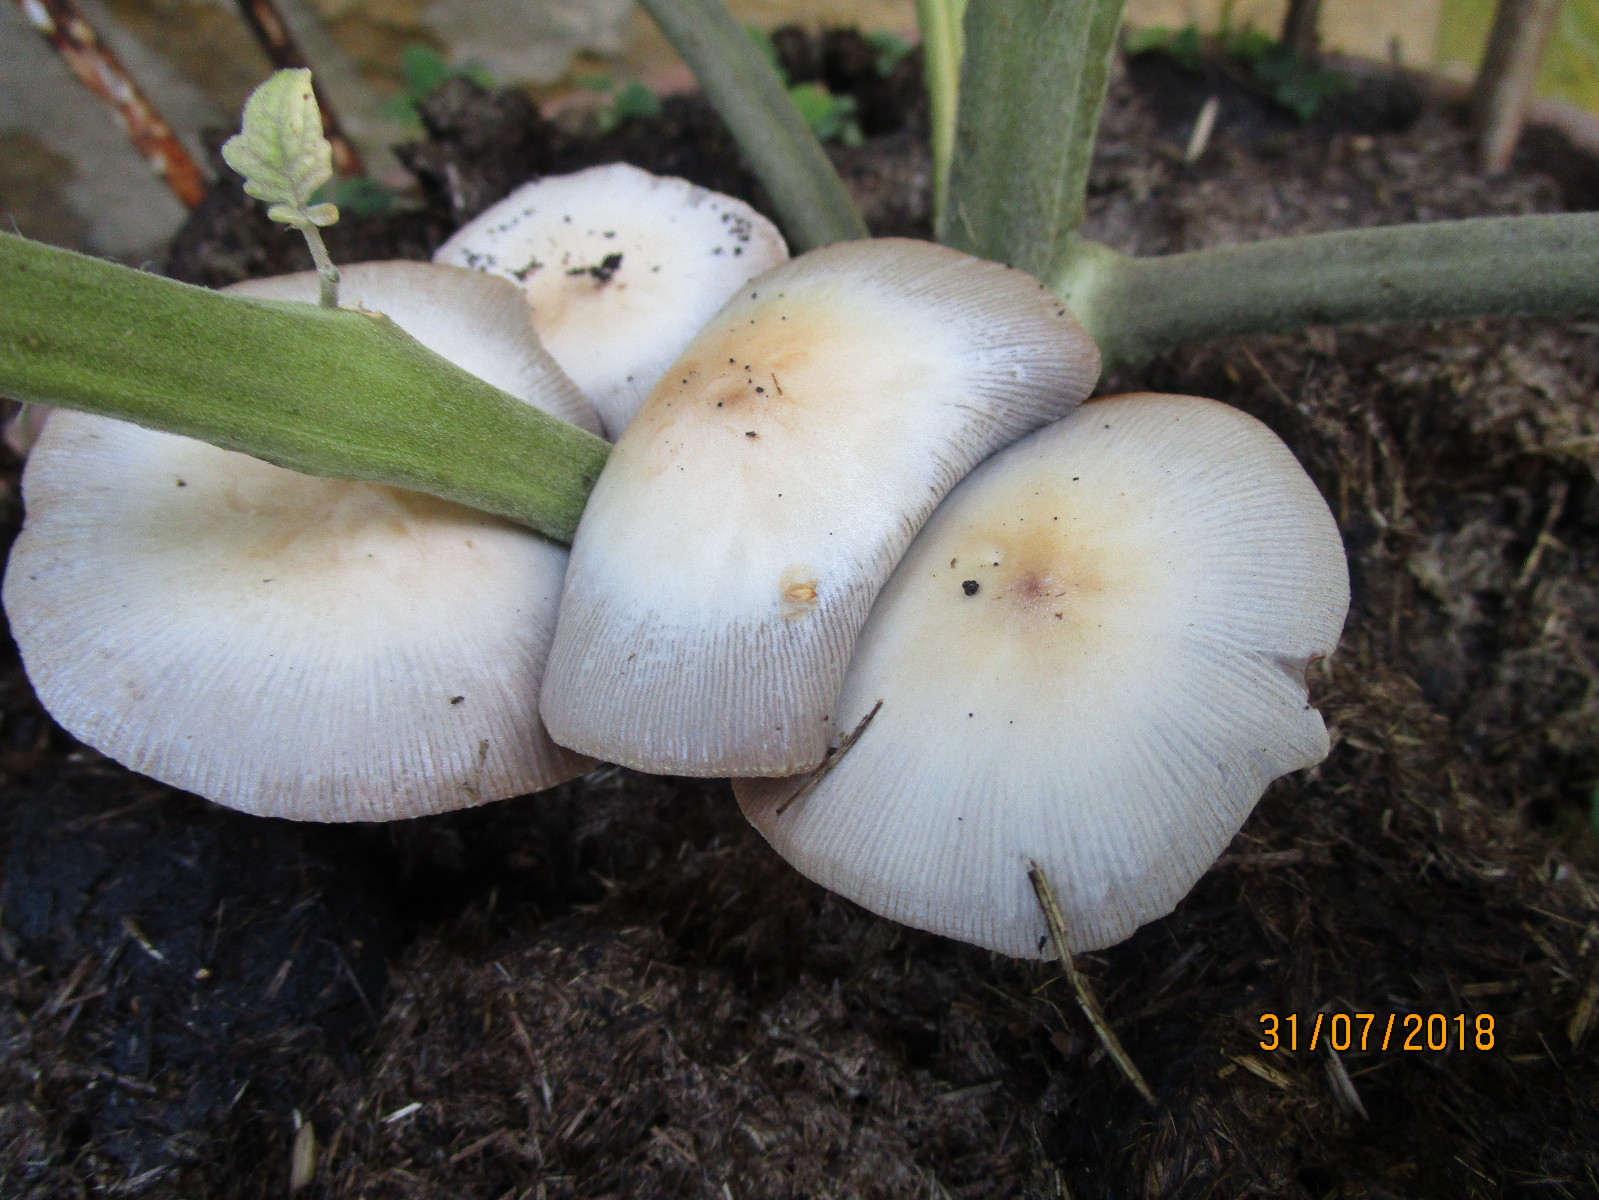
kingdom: Fungi
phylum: Basidiomycota
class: Agaricomycetes
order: Agaricales
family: Bolbitiaceae
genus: Bolbitius
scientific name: Bolbitius coprophilus
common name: rosa gulhat
